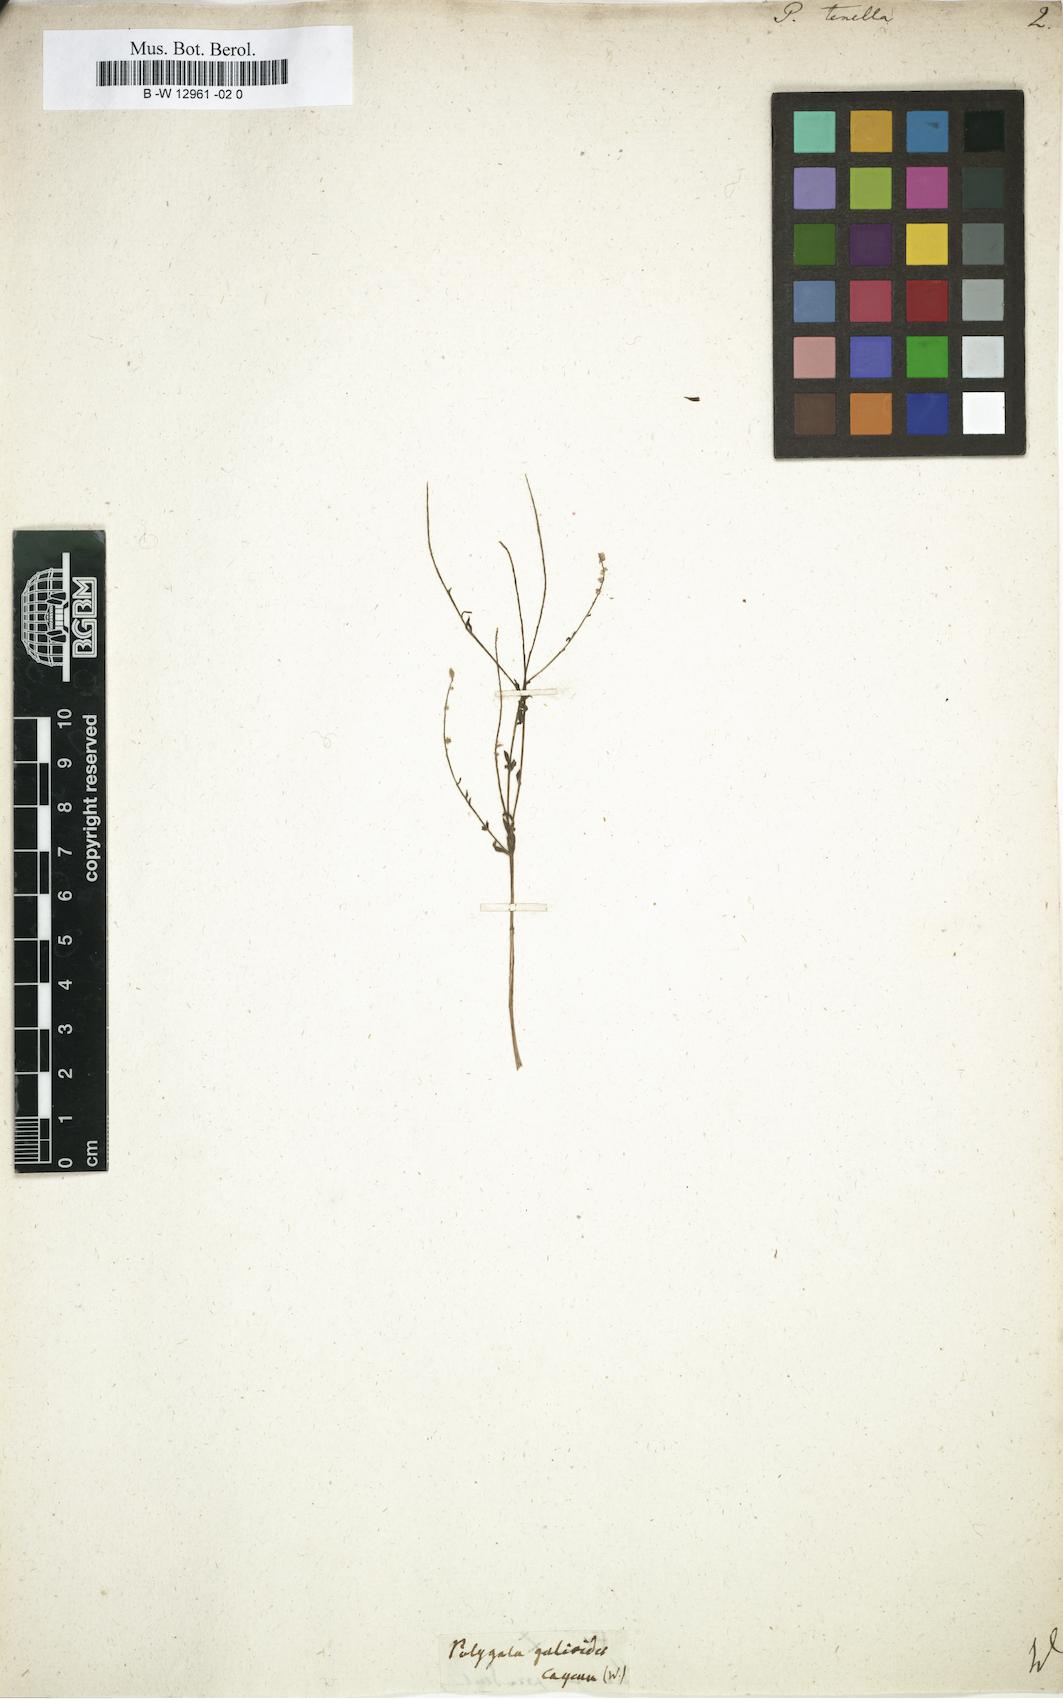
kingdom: Plantae
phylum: Tracheophyta
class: Magnoliopsida
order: Fabales
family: Polygalaceae
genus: Polygala
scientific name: Polygala tenella
